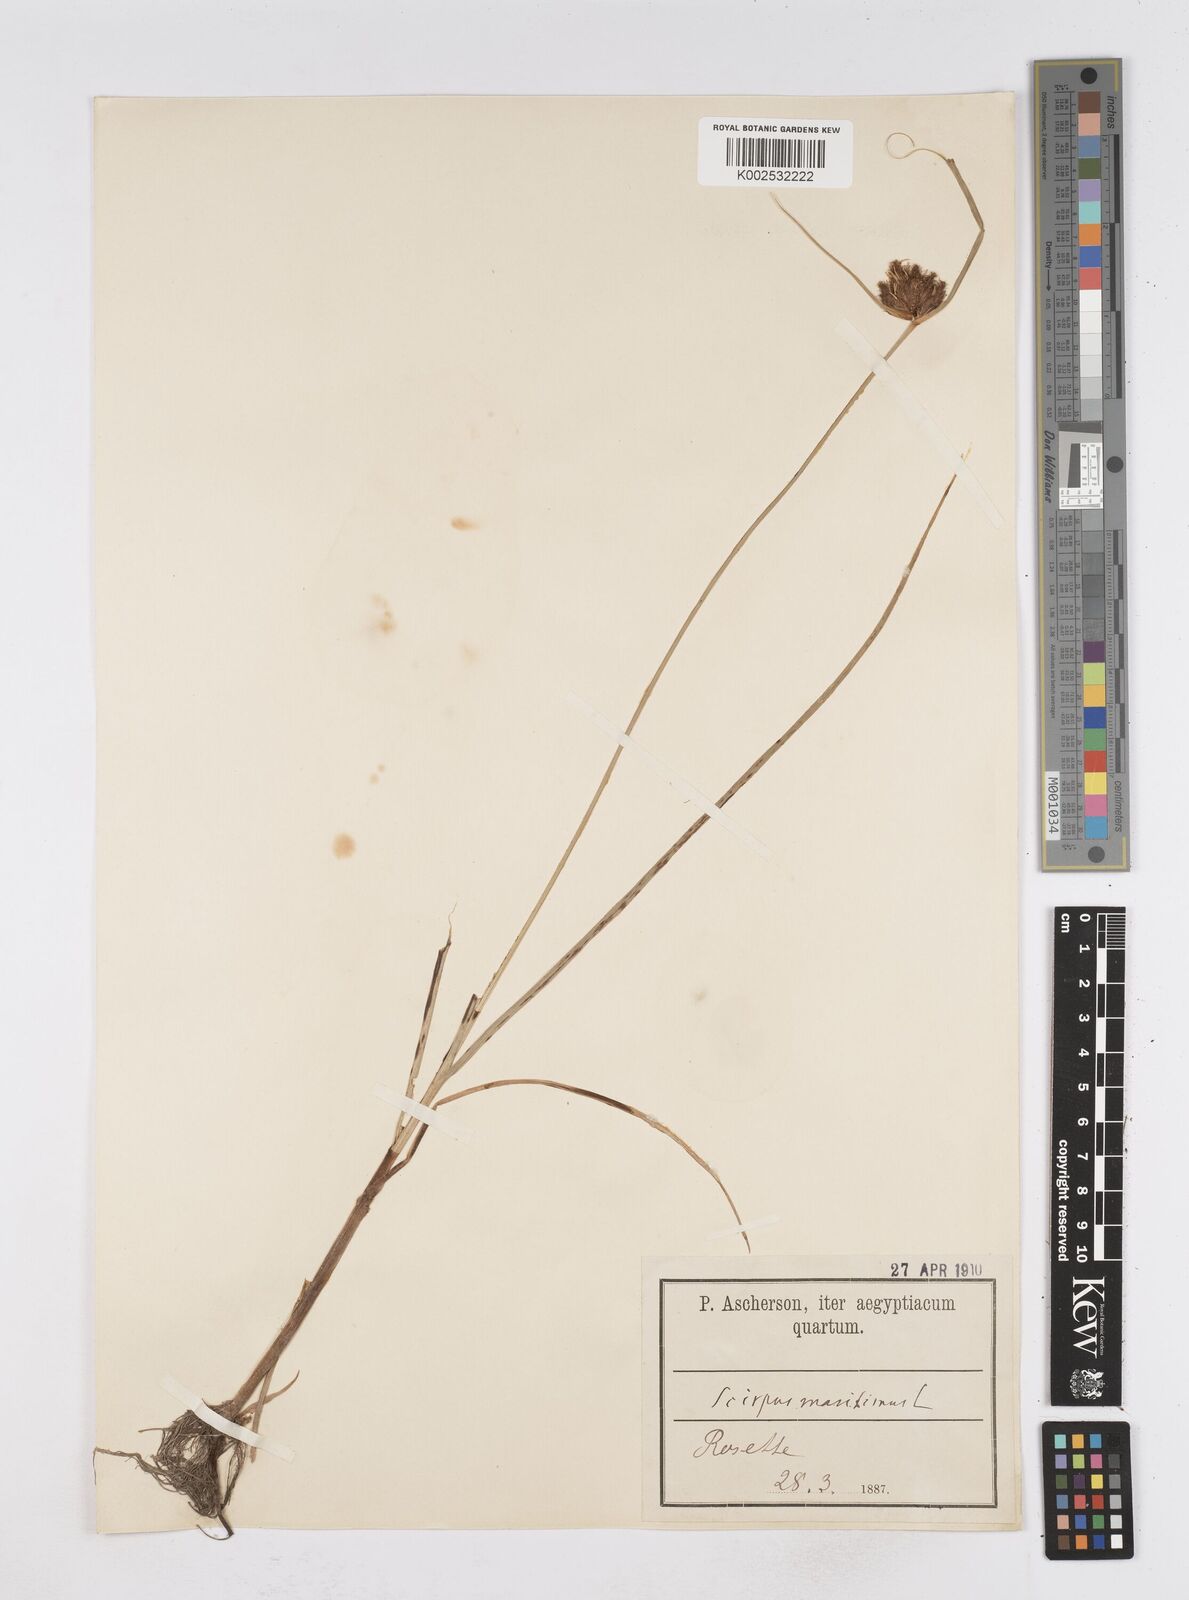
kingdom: Plantae
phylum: Tracheophyta
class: Liliopsida
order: Poales
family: Cyperaceae
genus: Bolboschoenus
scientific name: Bolboschoenus maritimus
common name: Sea club-rush
